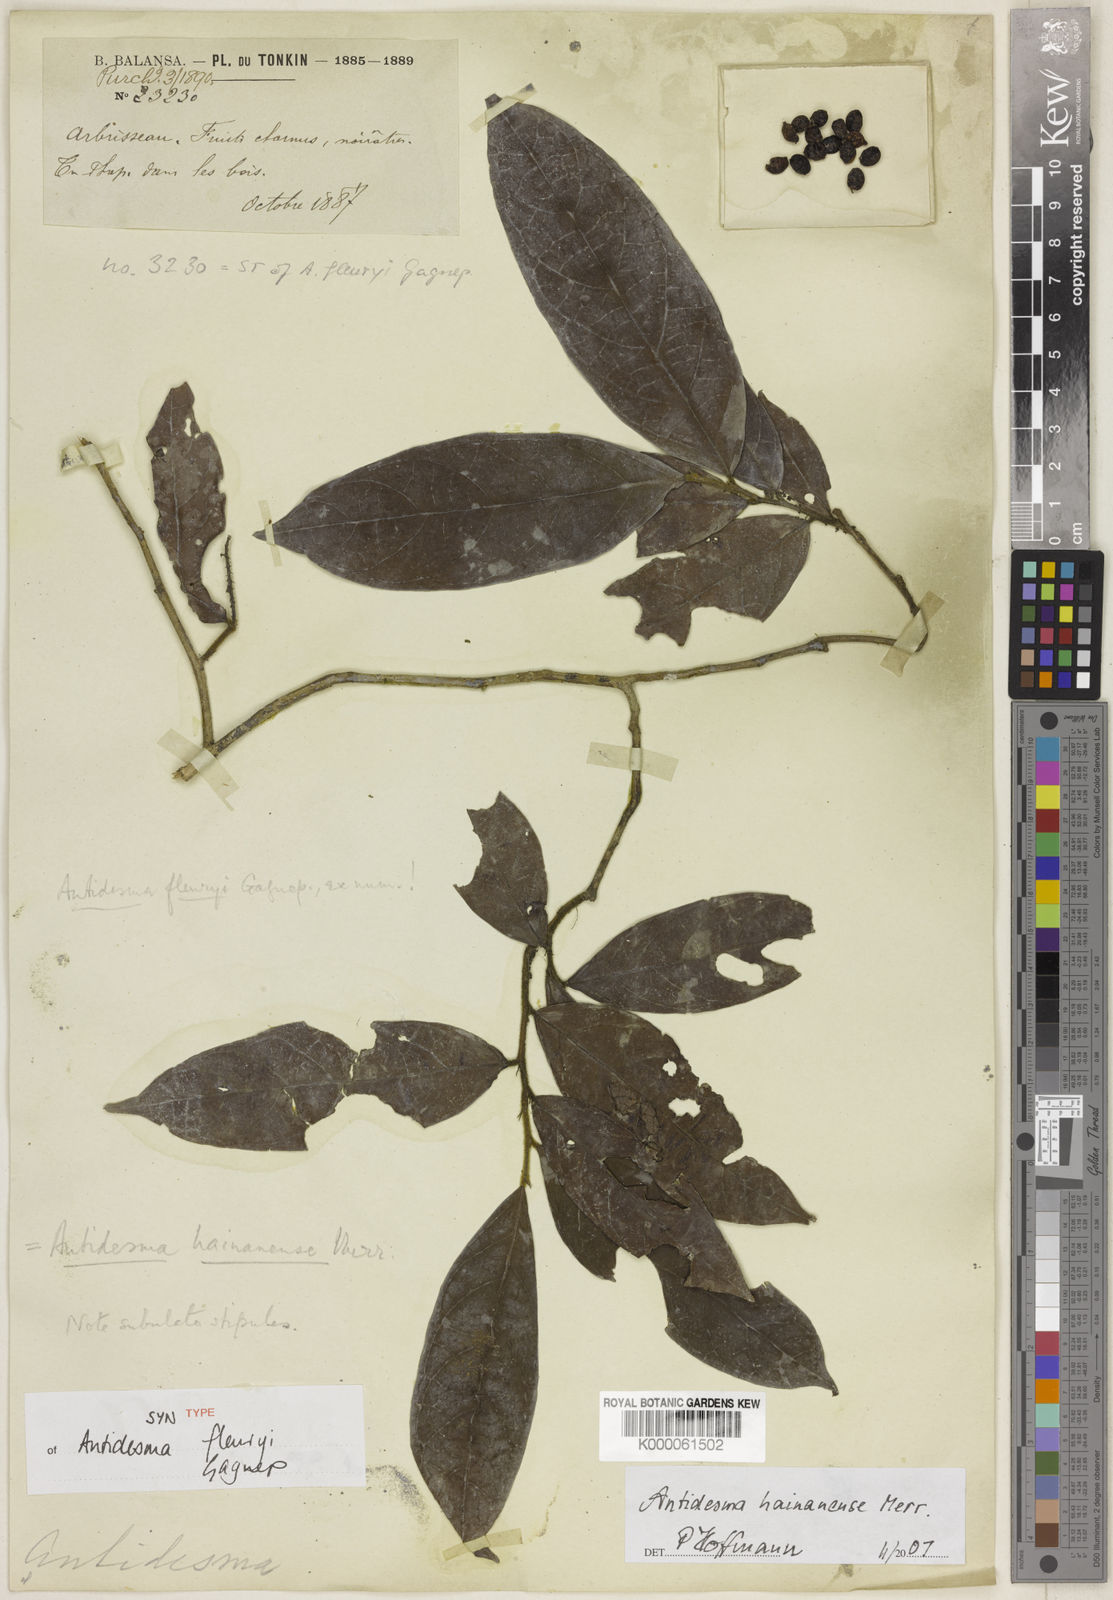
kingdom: Plantae
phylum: Tracheophyta
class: Magnoliopsida
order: Malpighiales
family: Phyllanthaceae
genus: Antidesma
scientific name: Antidesma hainanense
